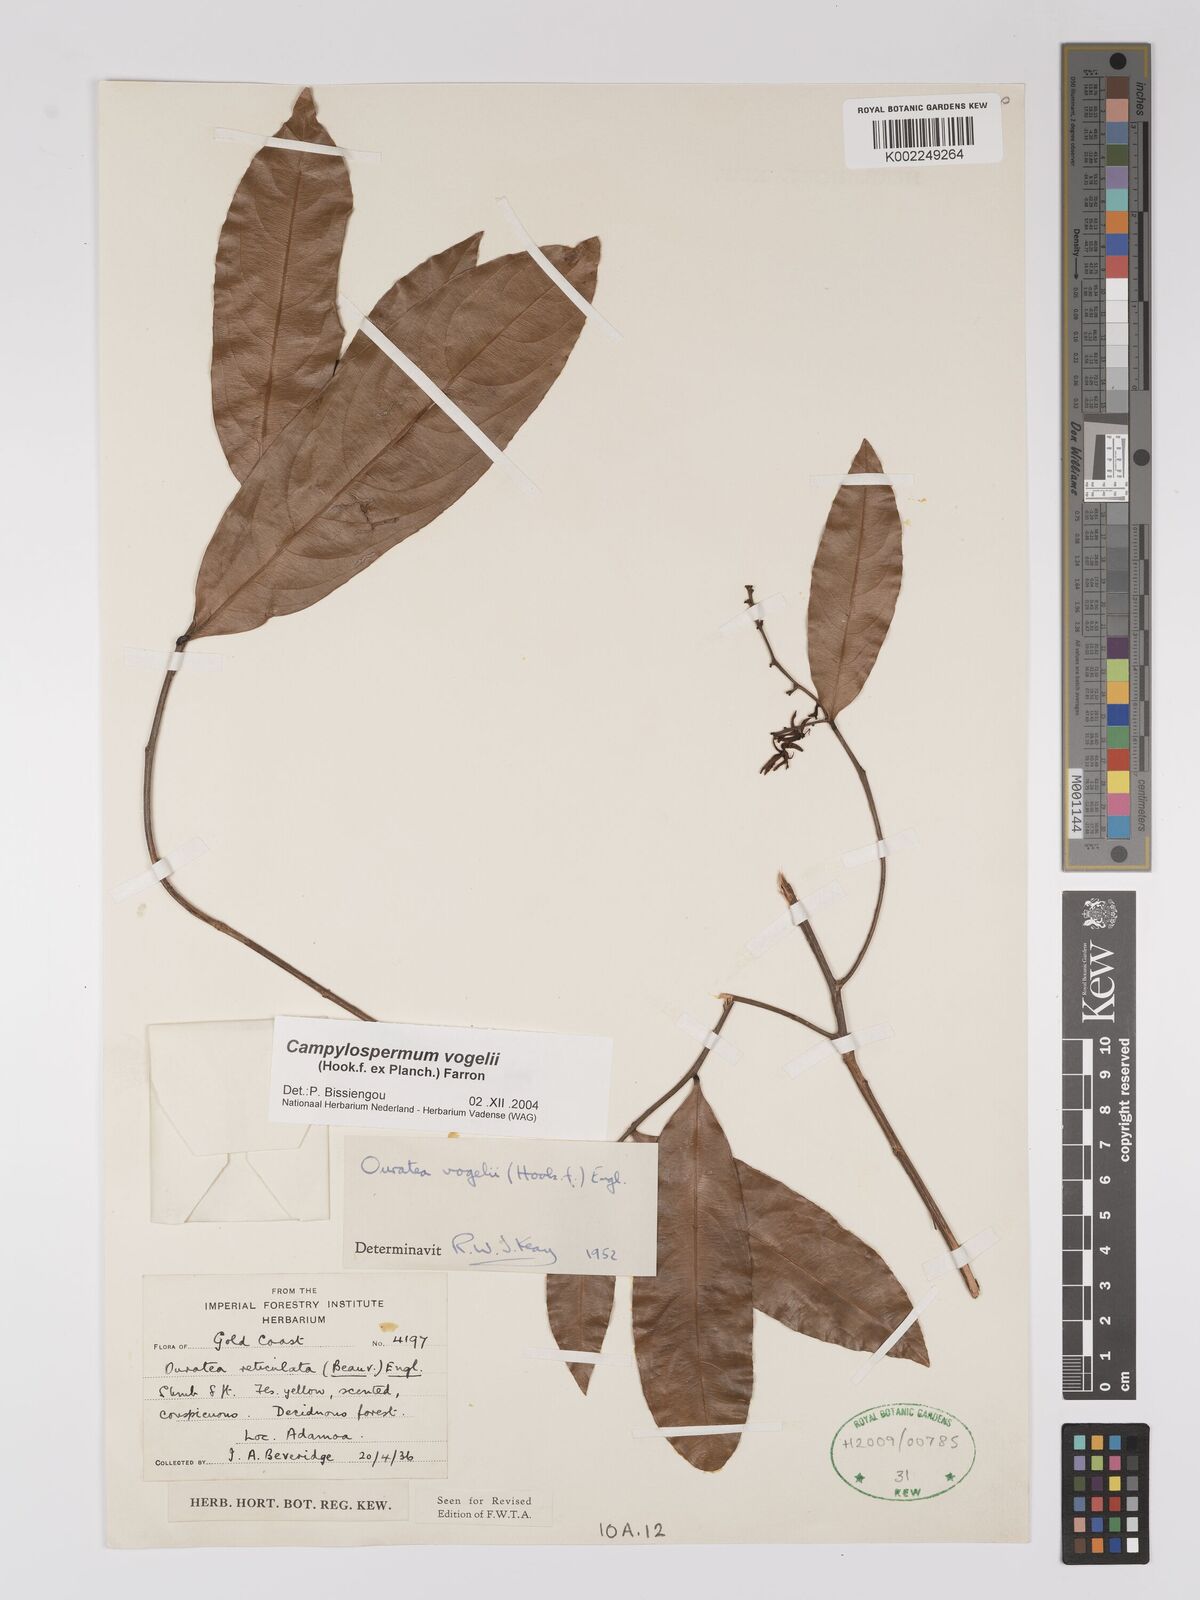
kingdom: Plantae
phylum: Tracheophyta
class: Magnoliopsida
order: Malpighiales
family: Ochnaceae
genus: Campylospermum
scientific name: Campylospermum vogelii
